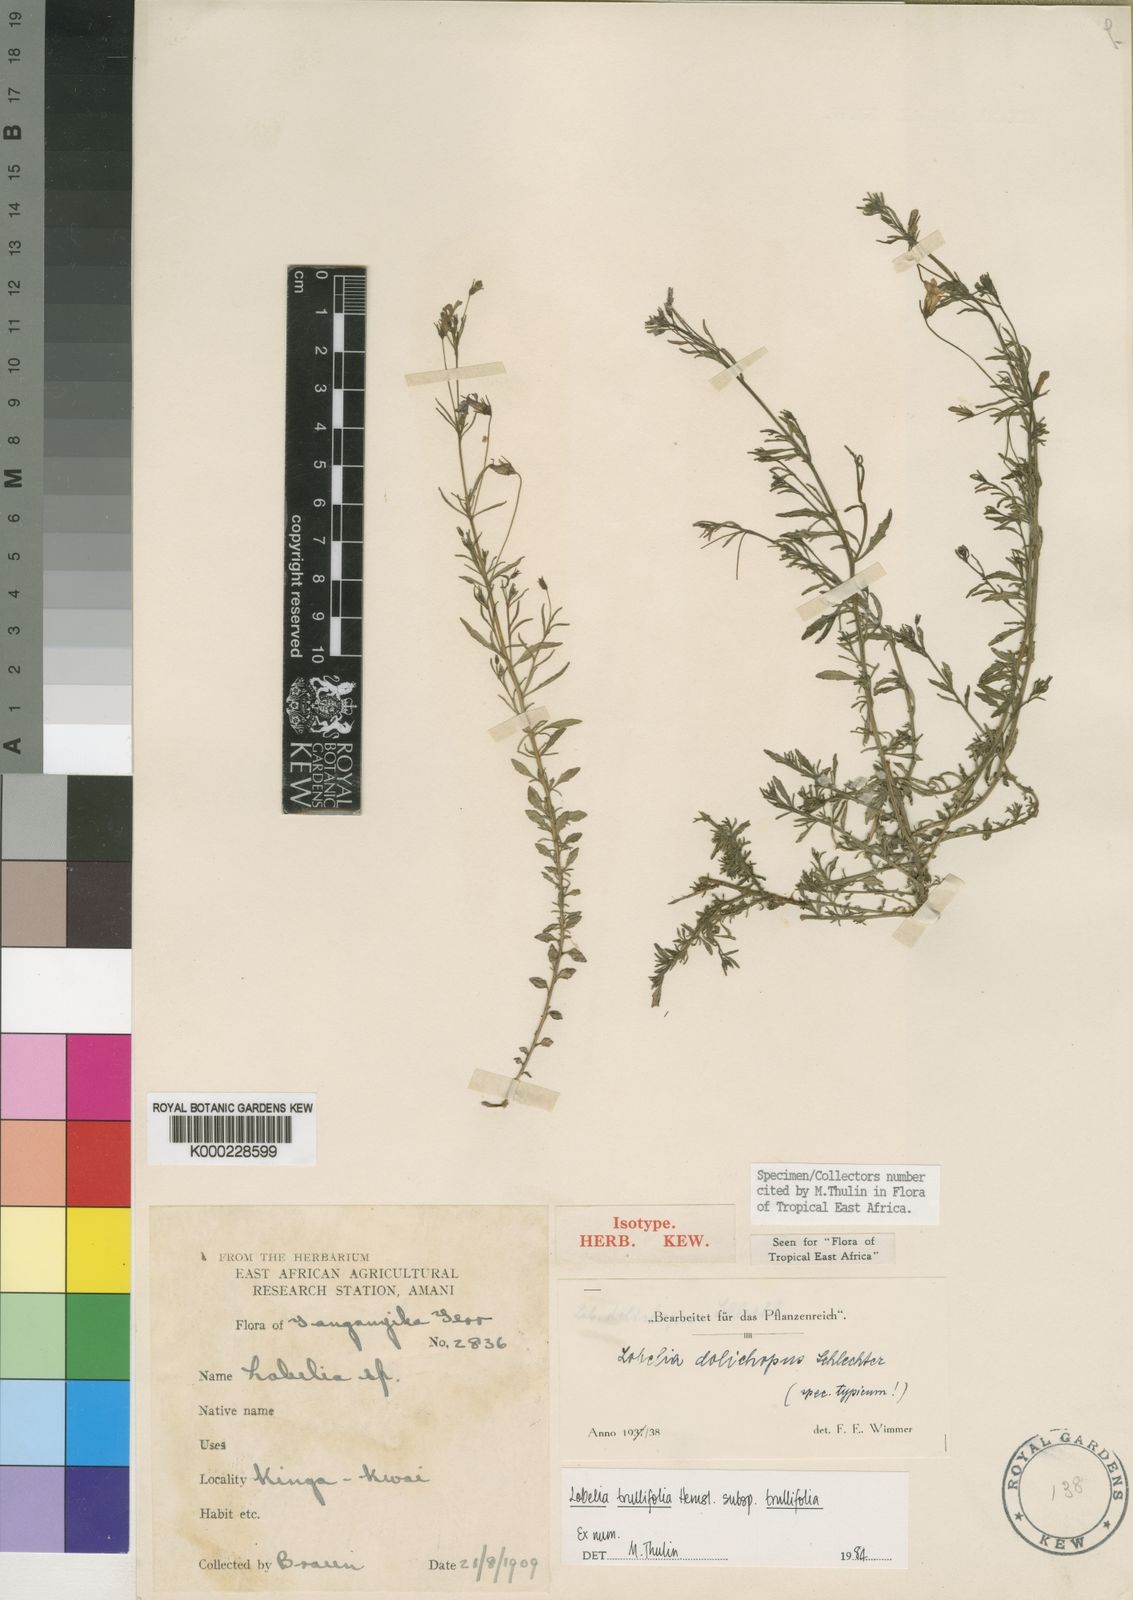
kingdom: Plantae
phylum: Tracheophyta
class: Magnoliopsida
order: Asterales
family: Campanulaceae
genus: Lobelia
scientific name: Lobelia trullifolia
